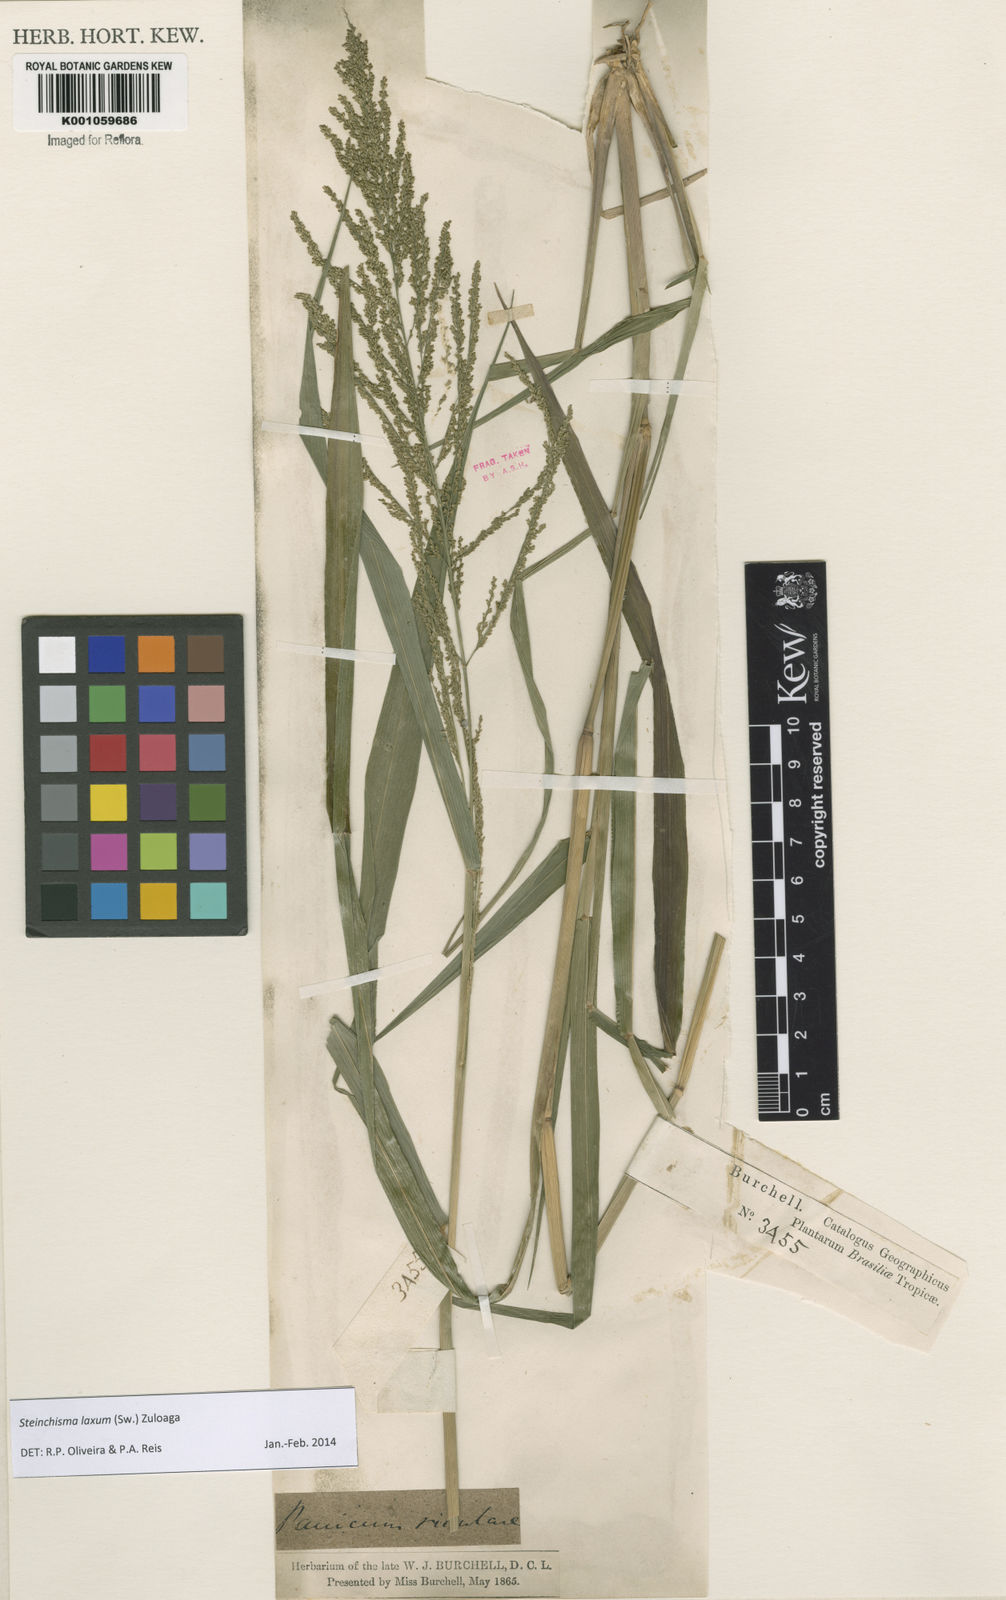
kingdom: Plantae
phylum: Tracheophyta
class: Liliopsida
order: Poales
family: Poaceae
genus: Steinchisma
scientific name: Steinchisma laxum
